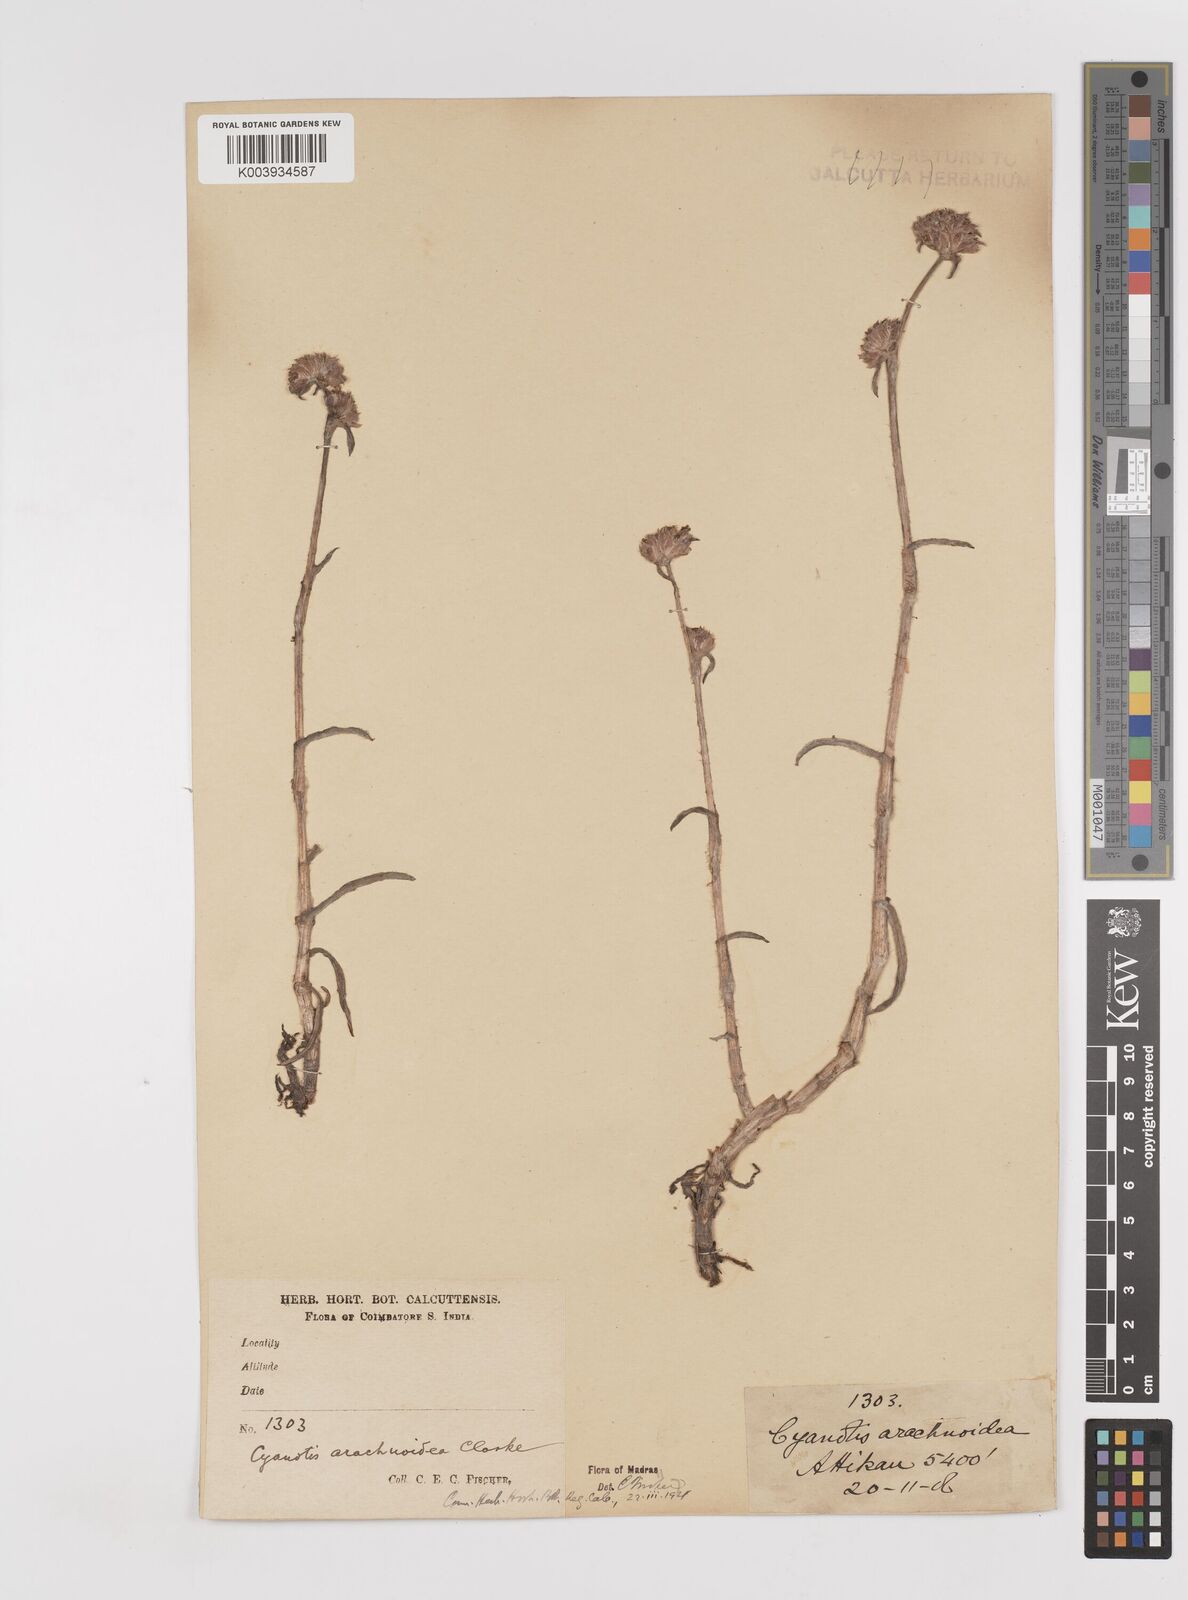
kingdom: Plantae
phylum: Tracheophyta
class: Liliopsida
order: Commelinales
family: Commelinaceae
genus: Cyanotis
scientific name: Cyanotis arachnoidea
